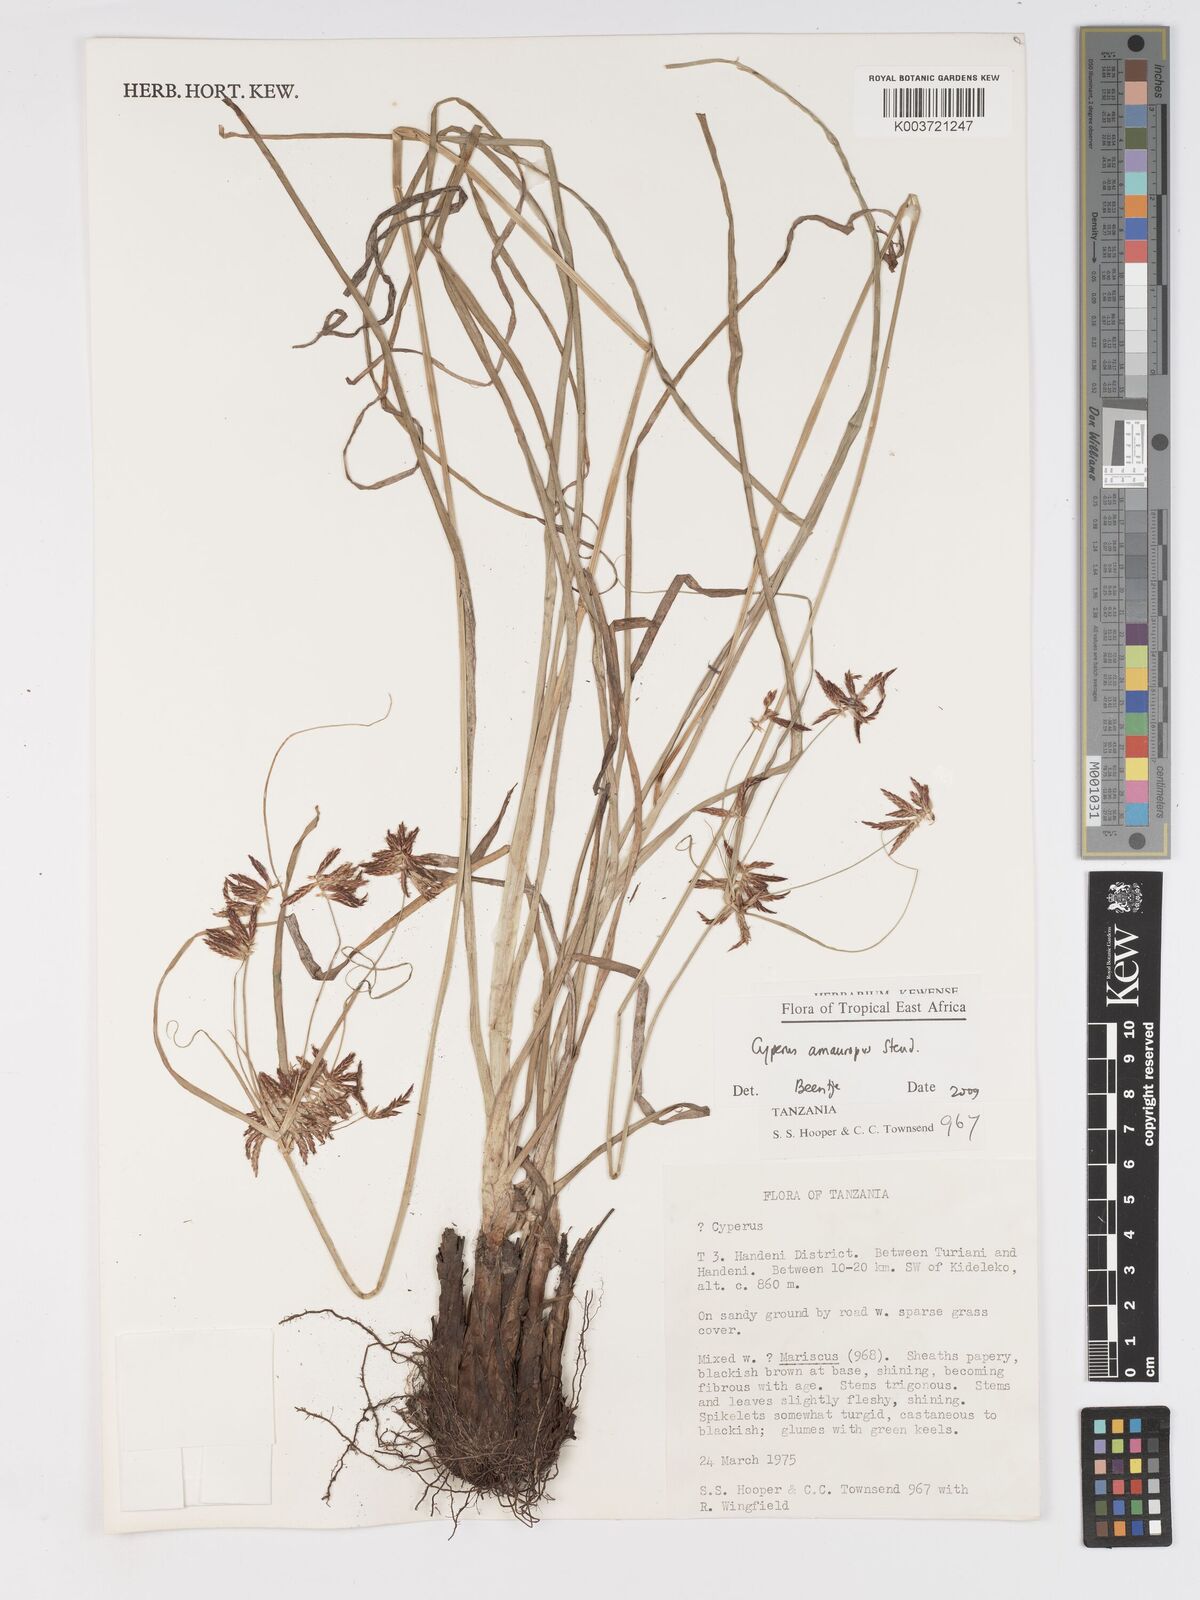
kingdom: Plantae
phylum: Tracheophyta
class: Liliopsida
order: Poales
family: Cyperaceae
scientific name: Cyperaceae
